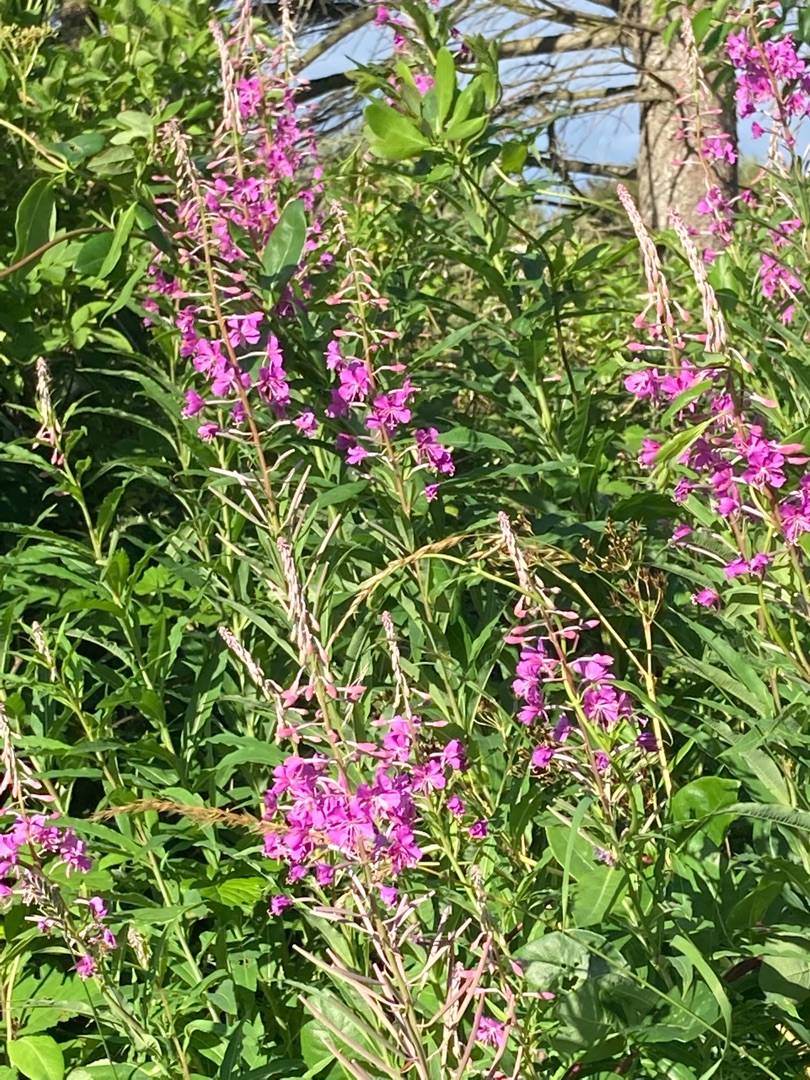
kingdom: Plantae
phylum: Tracheophyta
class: Magnoliopsida
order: Myrtales
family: Onagraceae
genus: Chamaenerion
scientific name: Chamaenerion angustifolium
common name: Gederams
